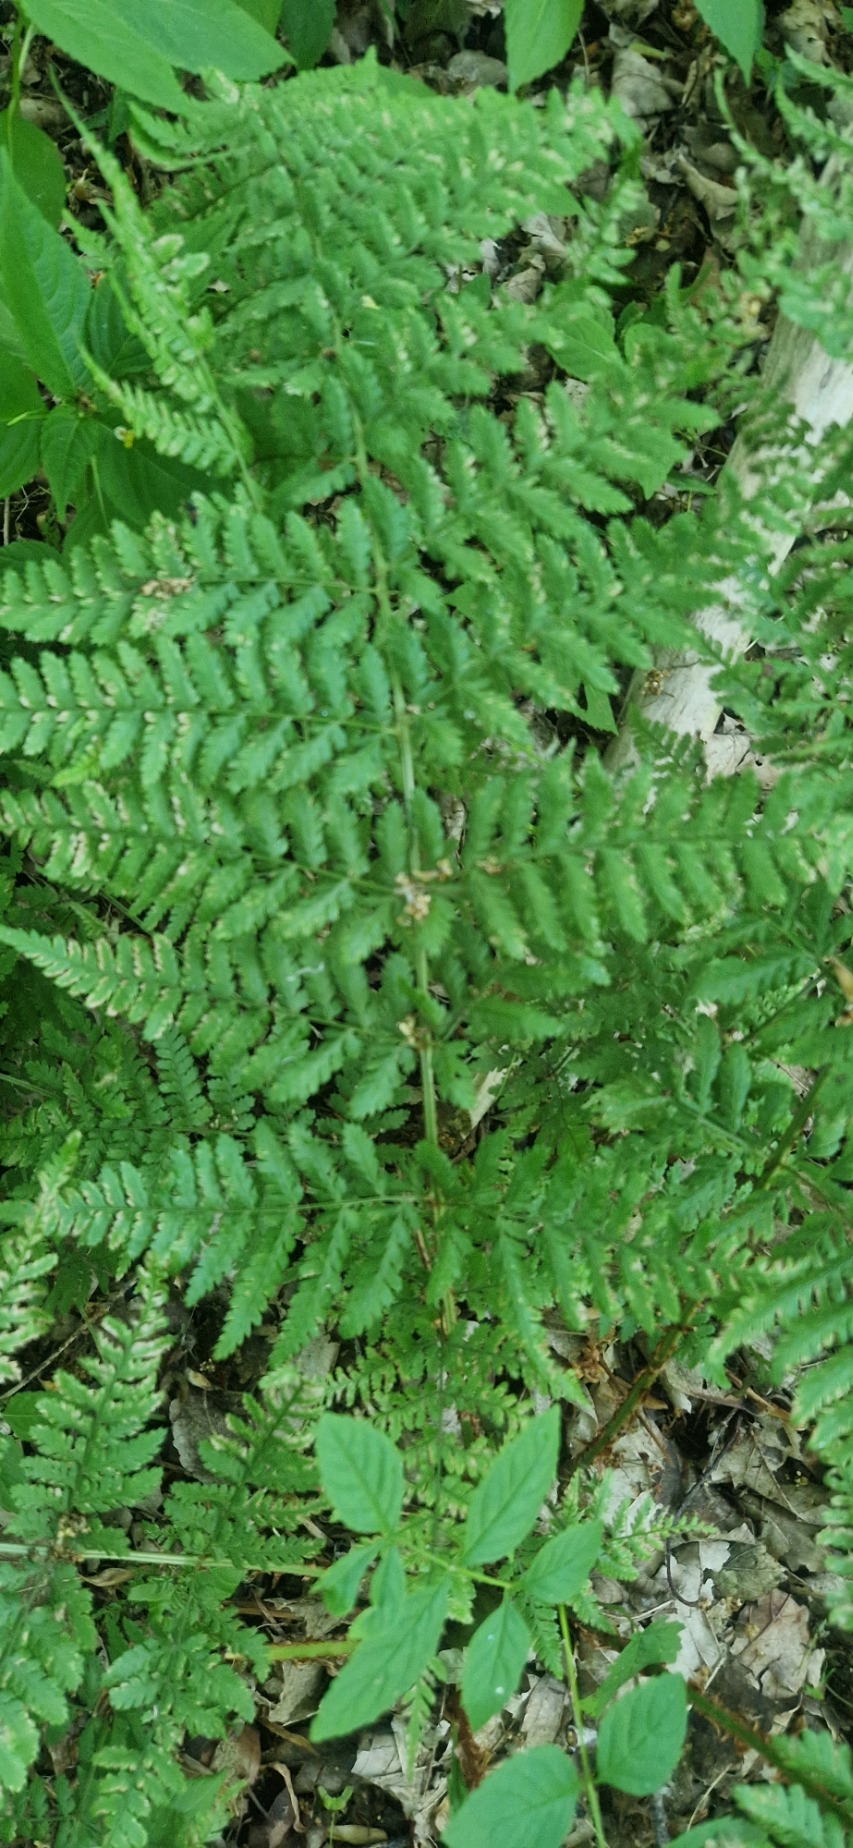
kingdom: Plantae
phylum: Tracheophyta
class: Polypodiopsida
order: Polypodiales
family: Dryopteridaceae
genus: Dryopteris
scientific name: Dryopteris dilatata
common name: Bredbladet mangeløv
